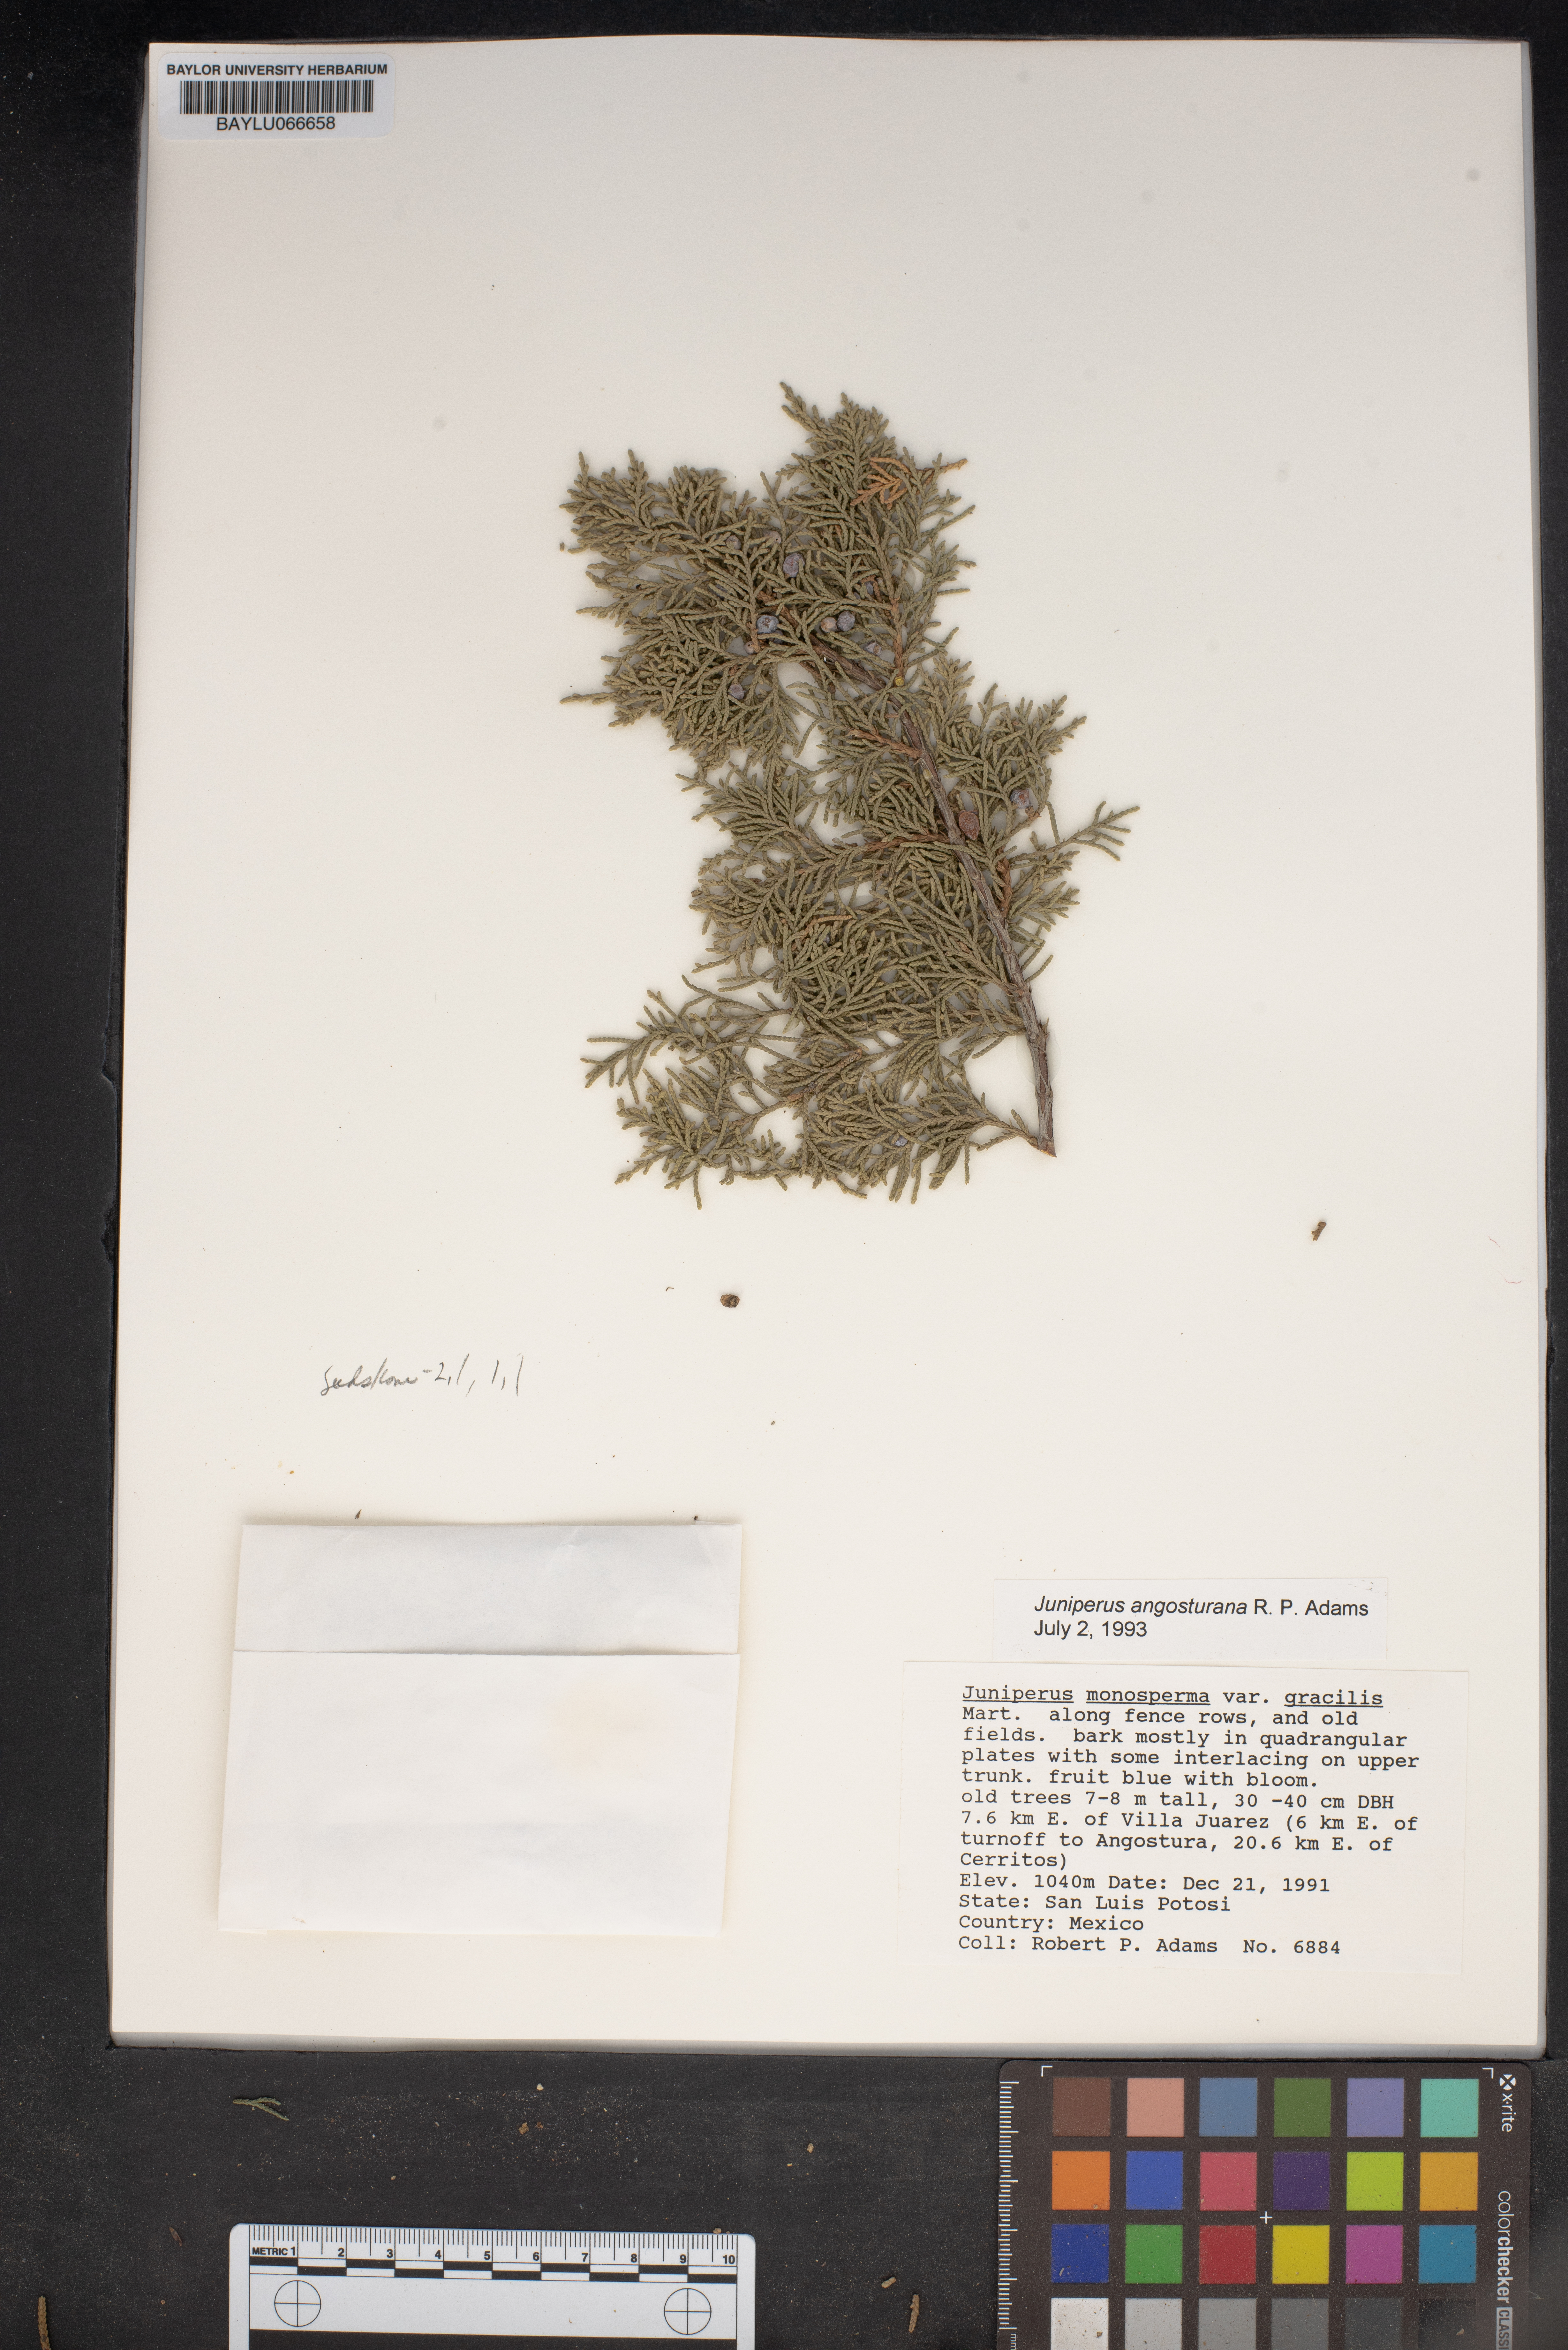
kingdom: Plantae
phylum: Tracheophyta
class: Pinopsida
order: Pinales
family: Cupressaceae
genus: Juniperus
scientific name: Juniperus angosturana
